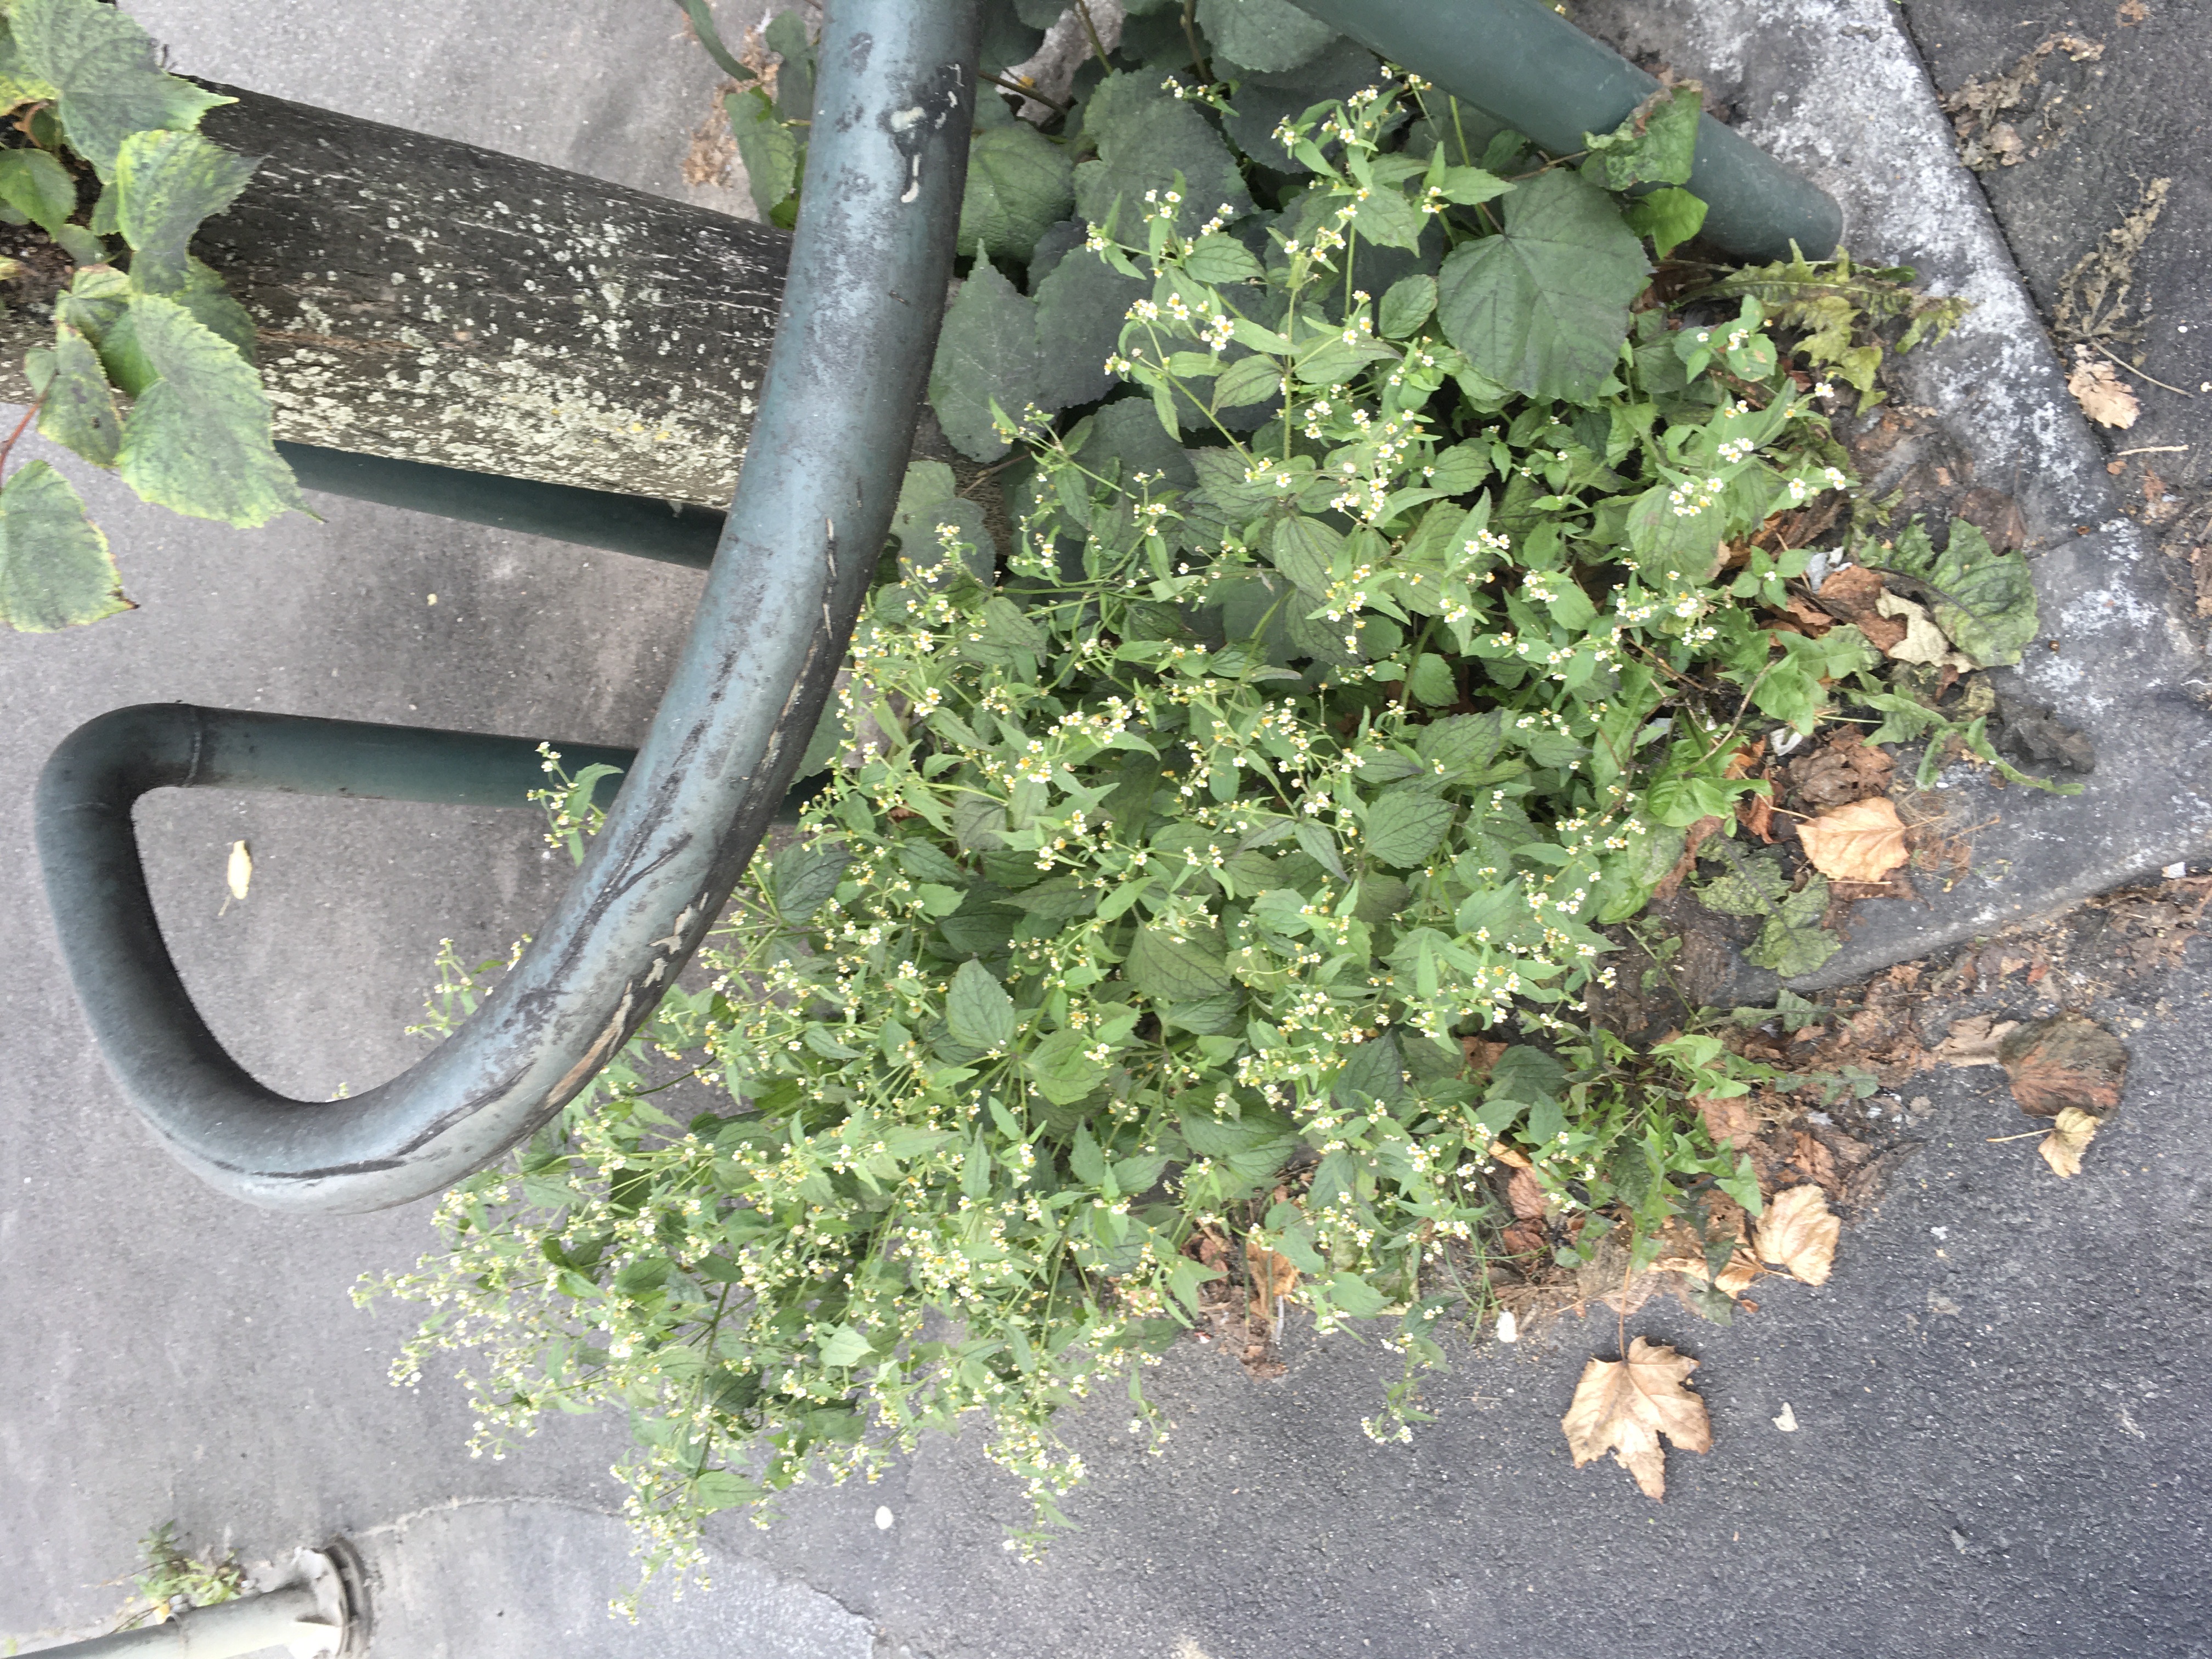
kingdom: Plantae
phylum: Tracheophyta
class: Magnoliopsida
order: Asterales
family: Asteraceae
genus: Galinsoga
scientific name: Galinsoga quadriradiata
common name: nesleskjellfrø
